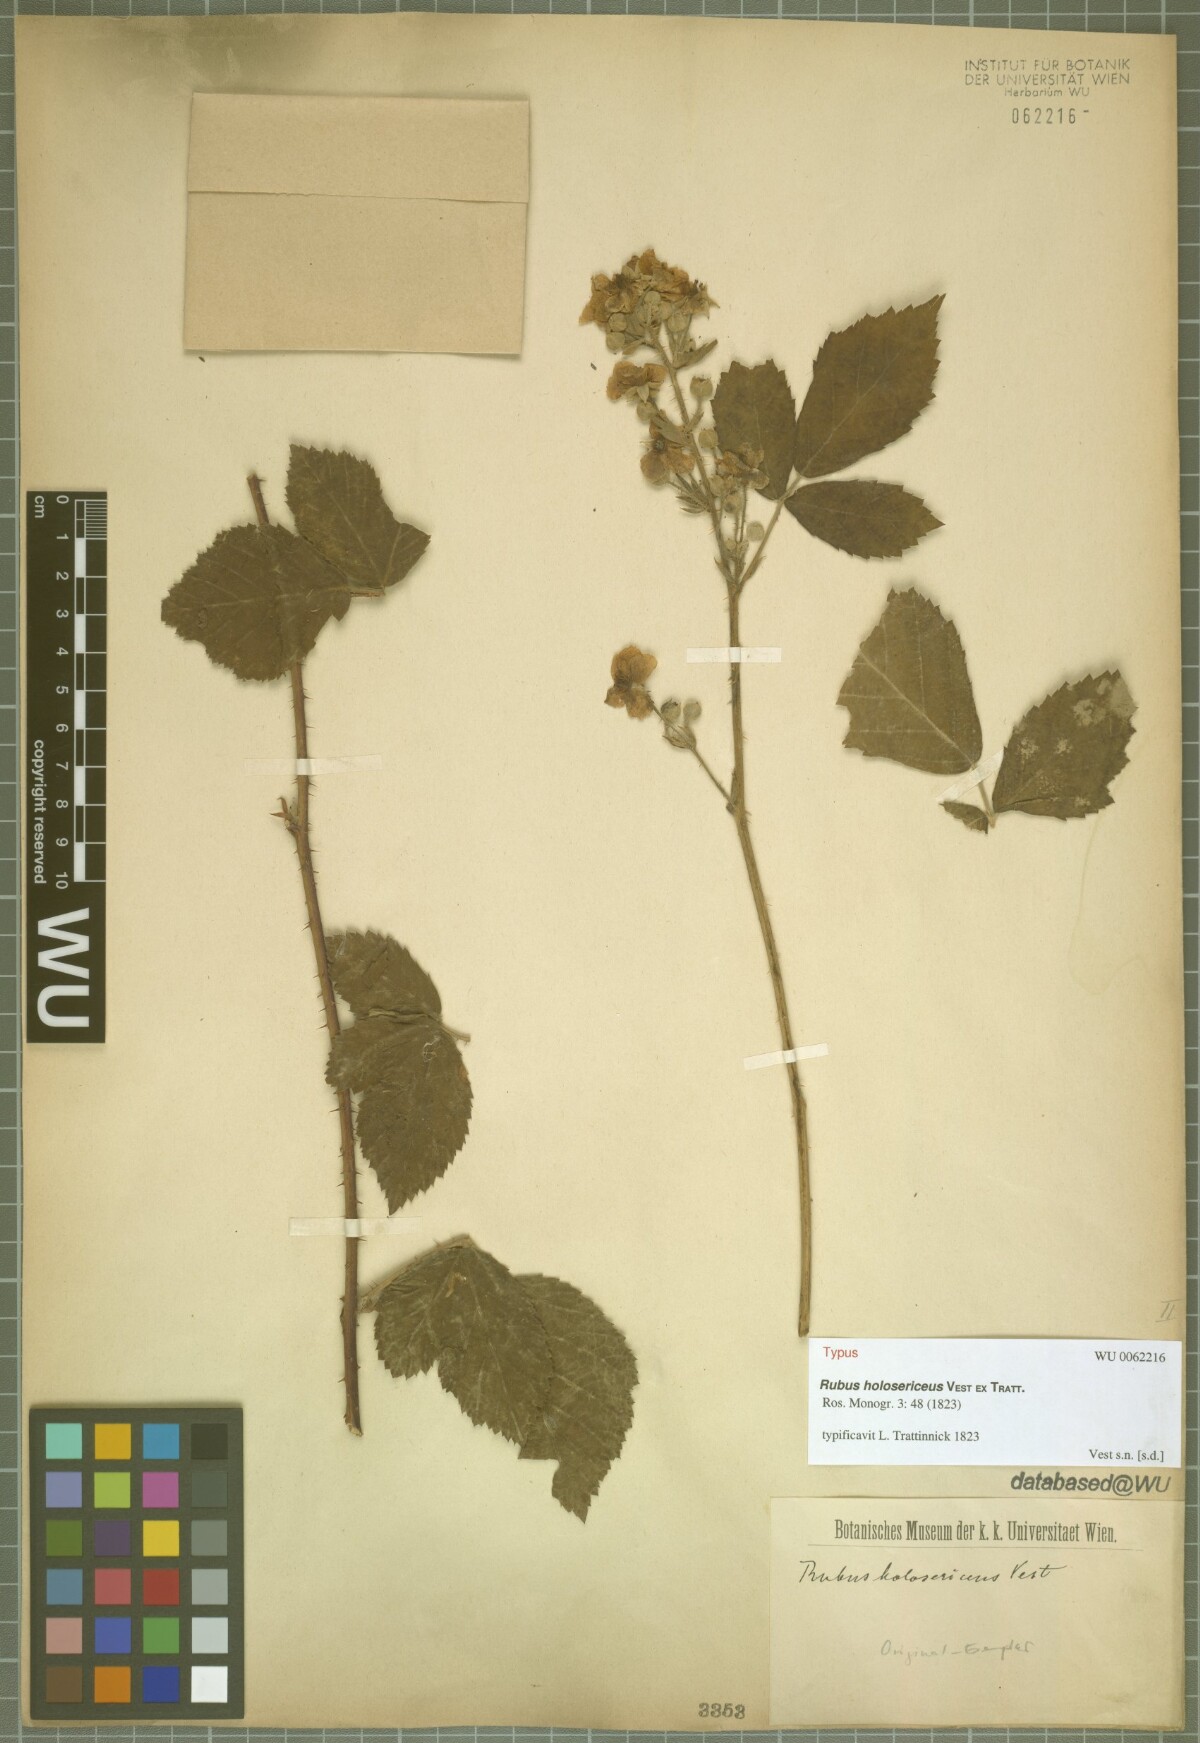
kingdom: Plantae
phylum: Tracheophyta
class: Magnoliopsida
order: Rosales
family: Rosaceae
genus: Rubus
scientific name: Rubus holosericeus
